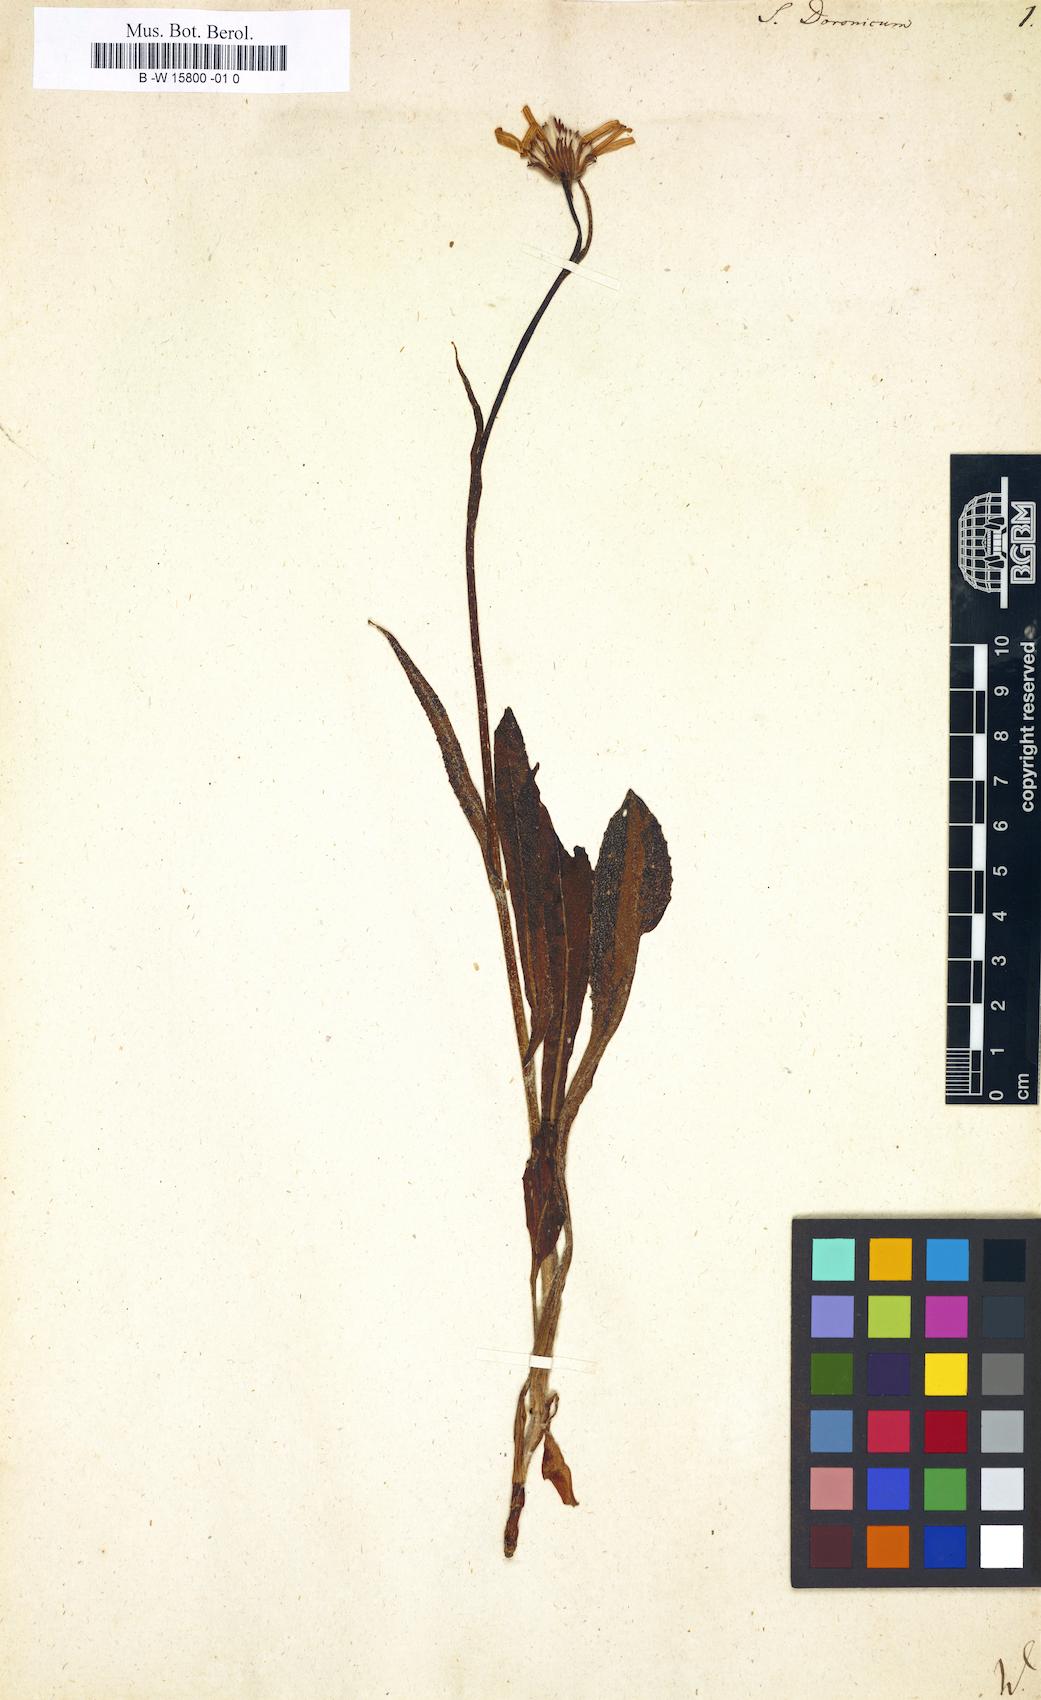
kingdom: Plantae
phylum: Tracheophyta
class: Magnoliopsida
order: Asterales
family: Asteraceae
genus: Senecio
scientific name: Senecio doronicum
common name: Chamois ragwort
